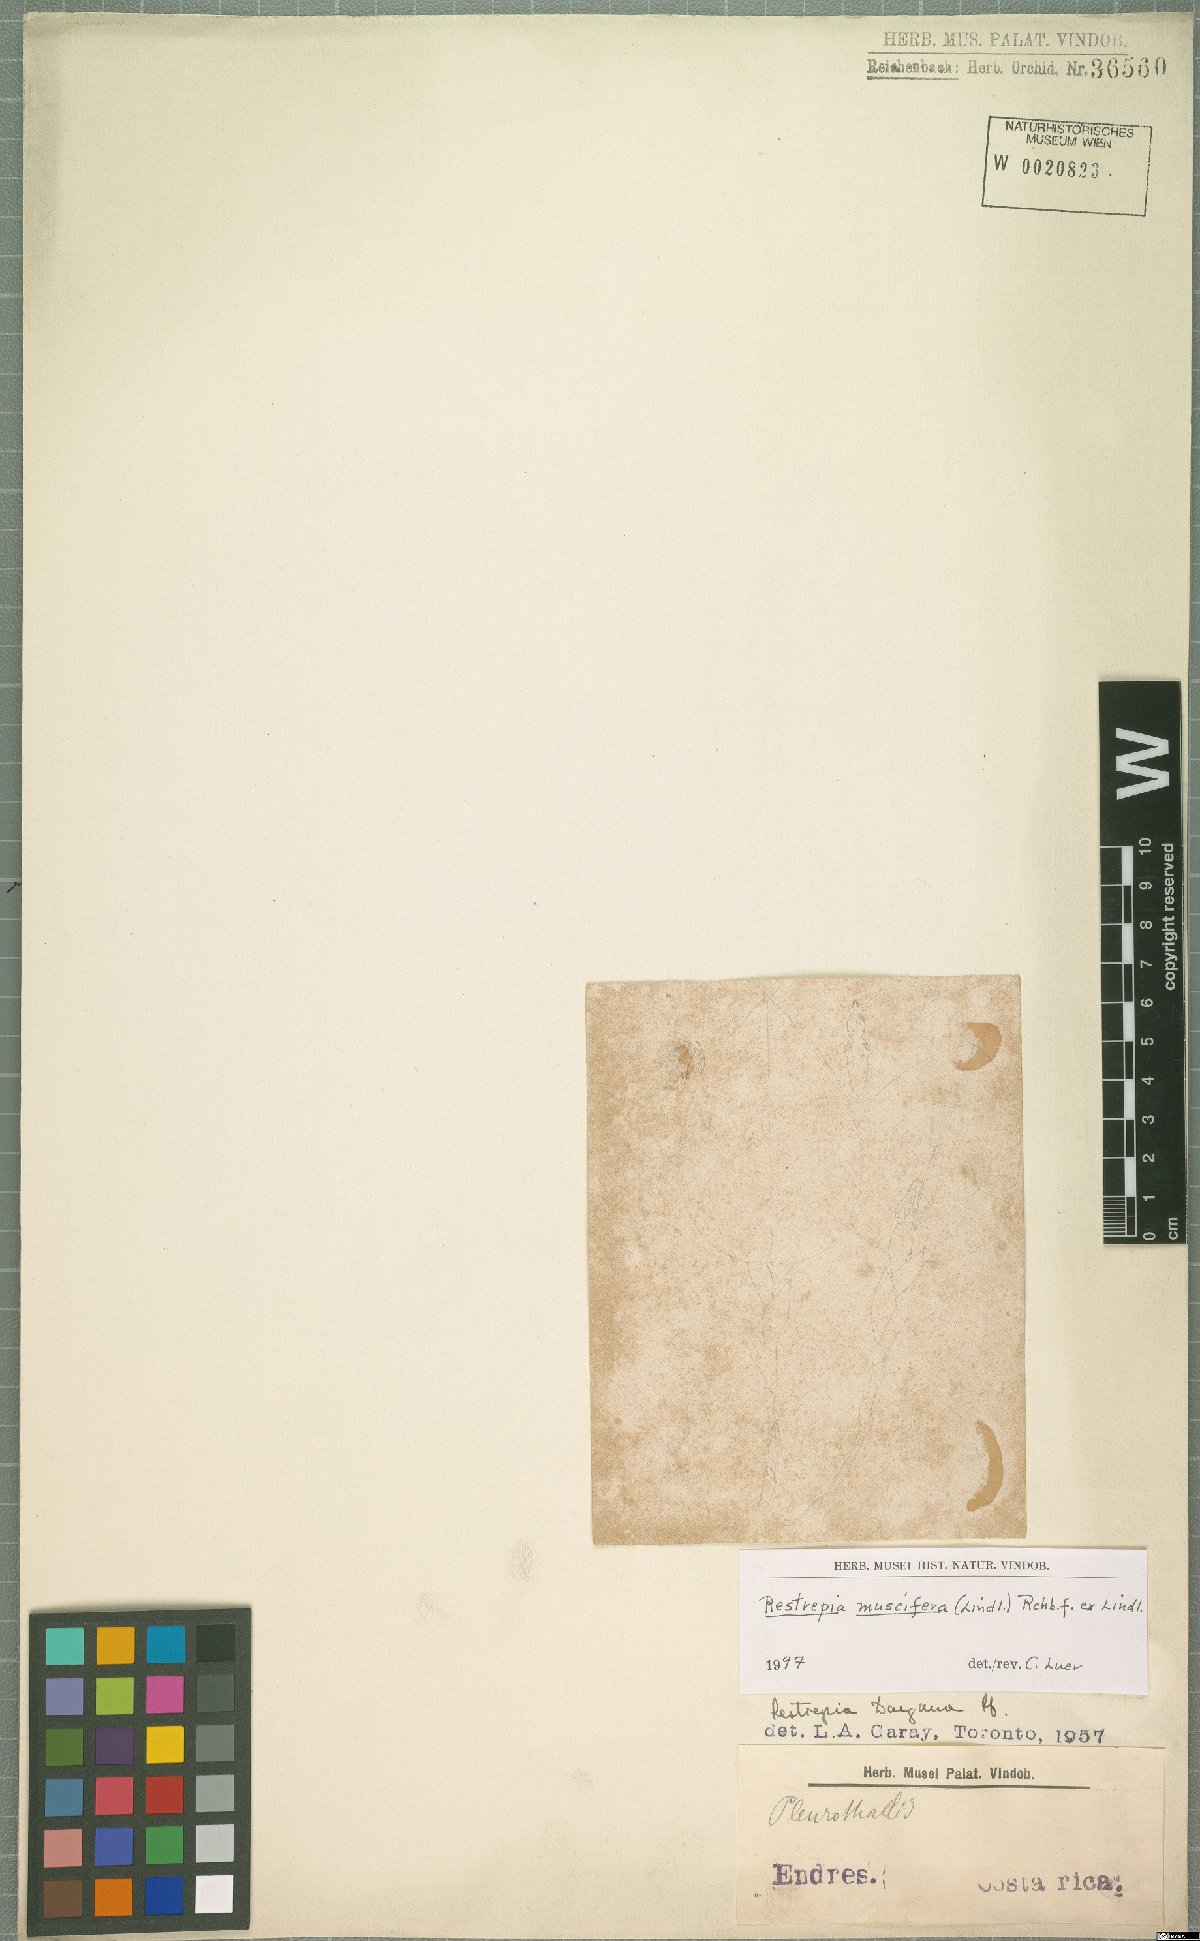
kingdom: Plantae
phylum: Tracheophyta
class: Liliopsida
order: Asparagales
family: Orchidaceae
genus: Restrepia
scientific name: Restrepia muscifera
